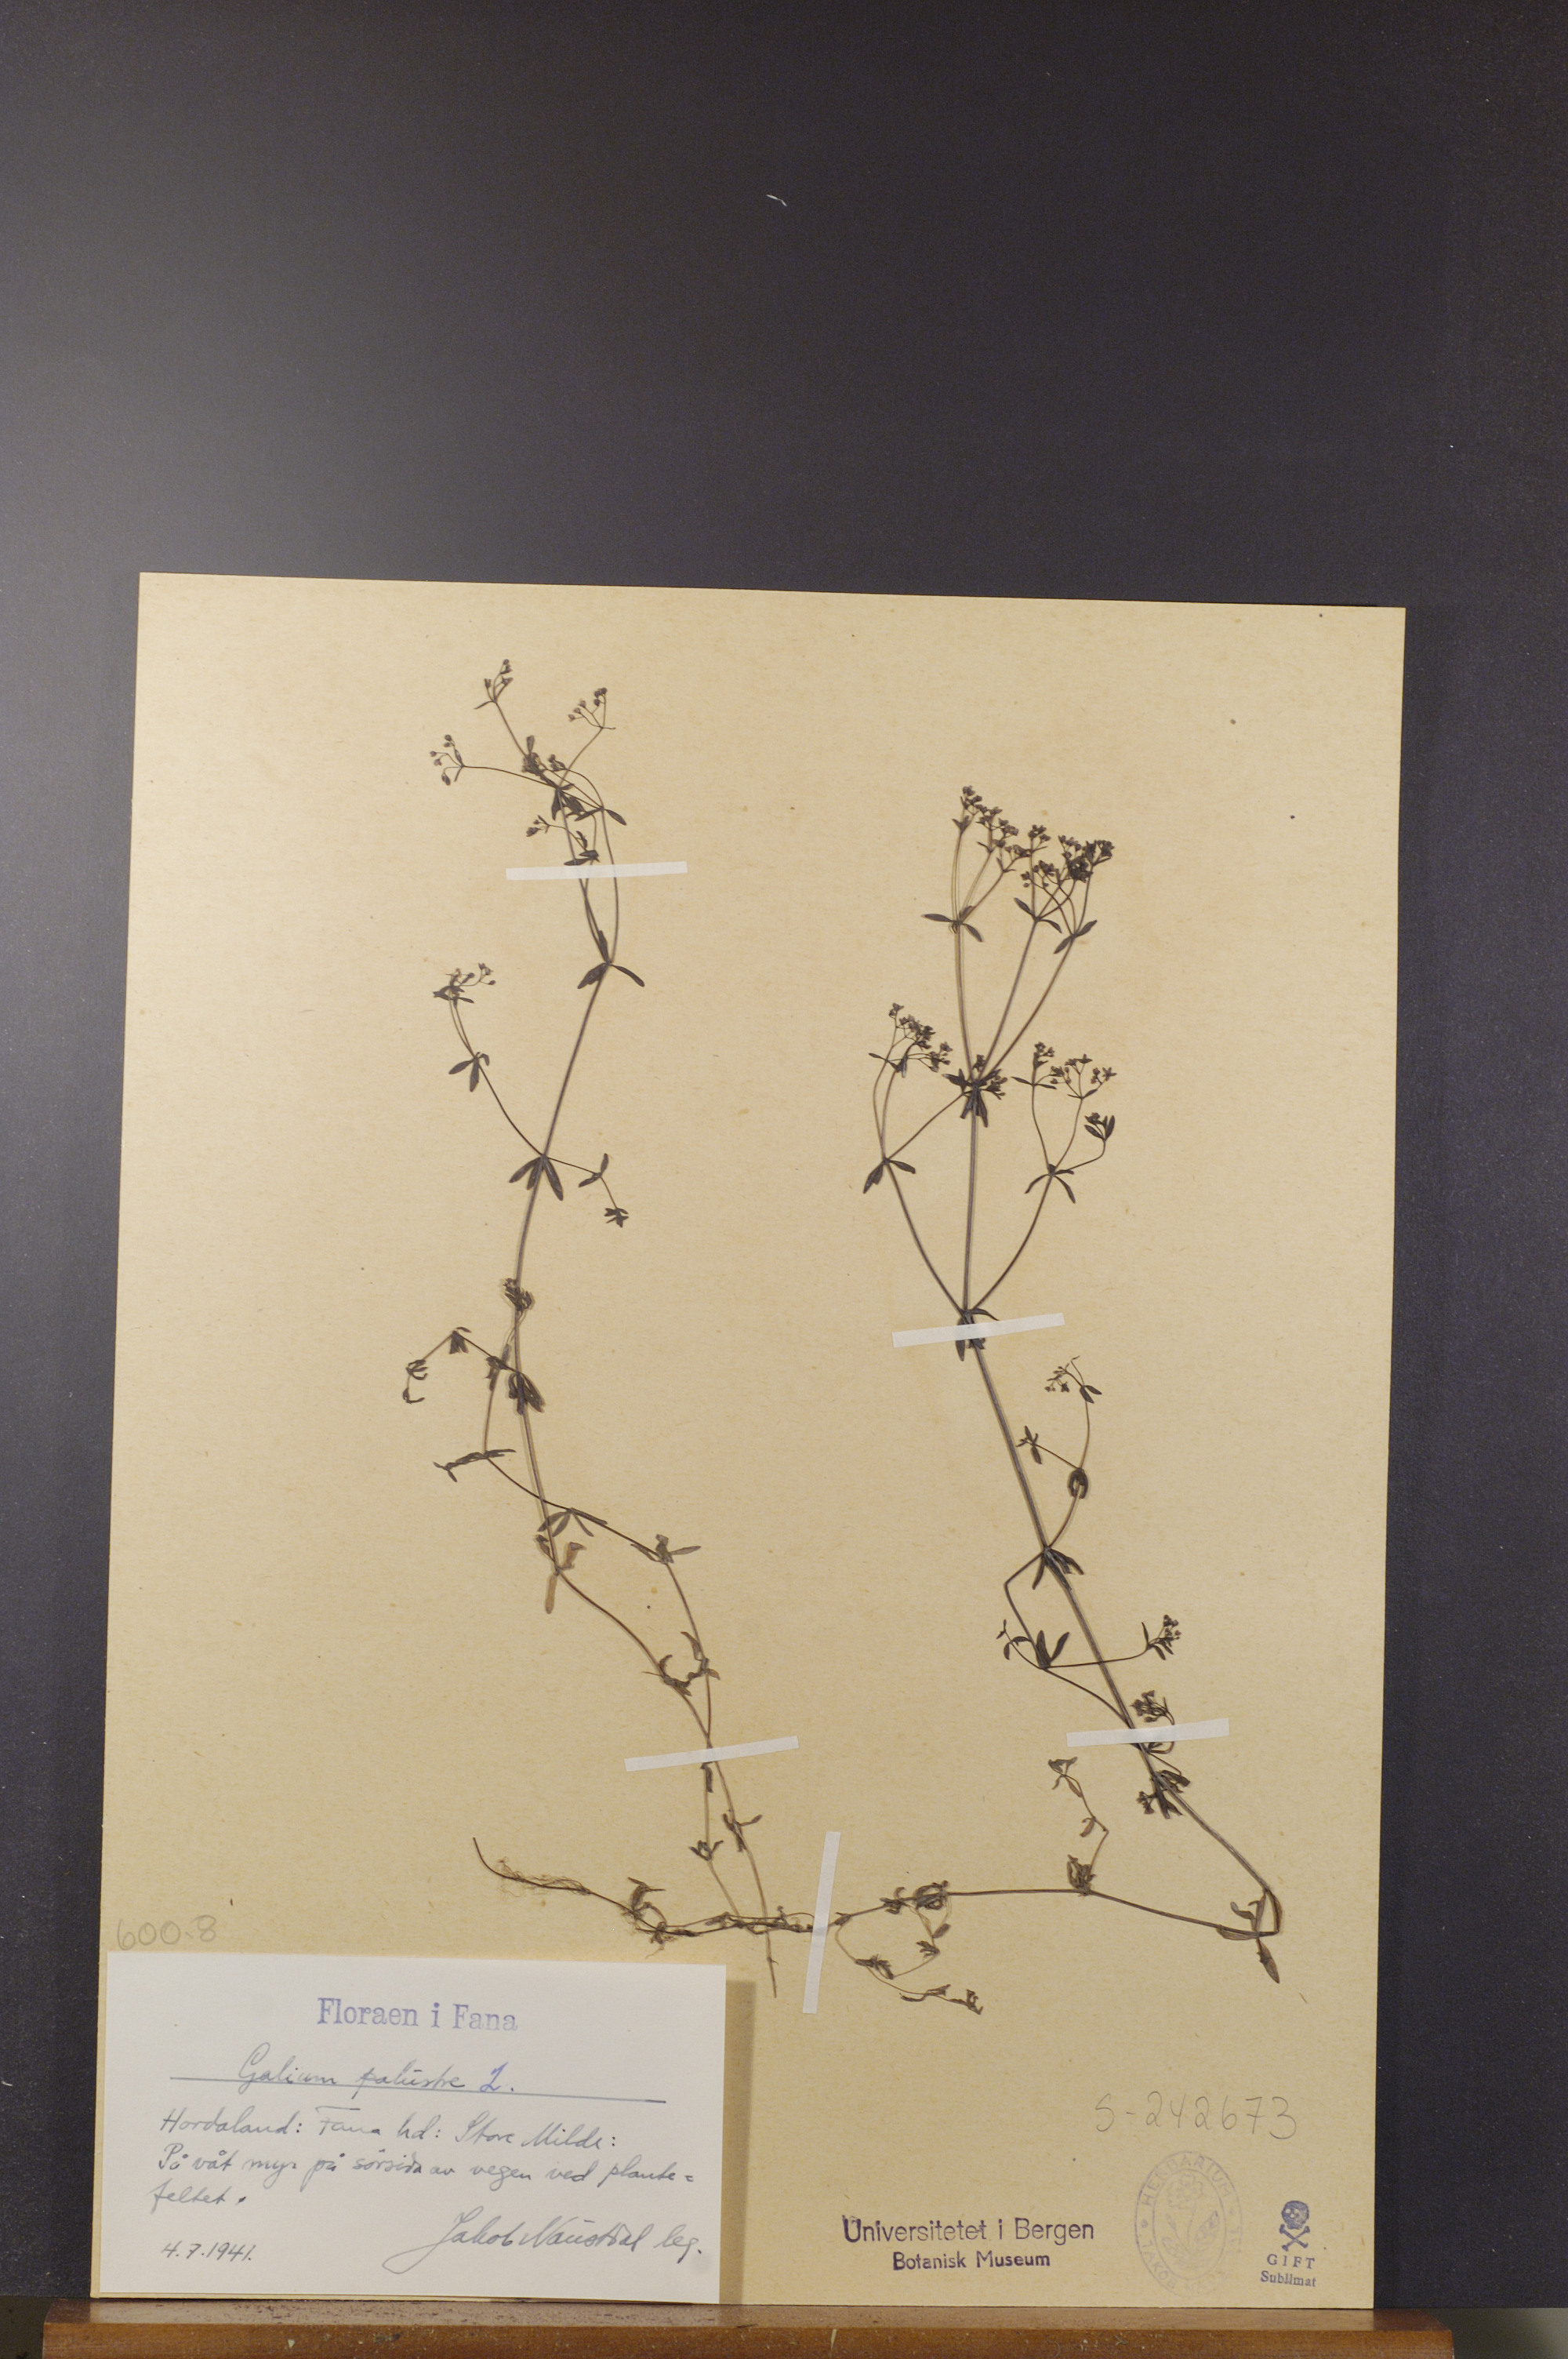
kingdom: Plantae
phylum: Tracheophyta
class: Magnoliopsida
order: Gentianales
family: Rubiaceae
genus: Galium
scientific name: Galium palustre
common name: Common marsh-bedstraw
